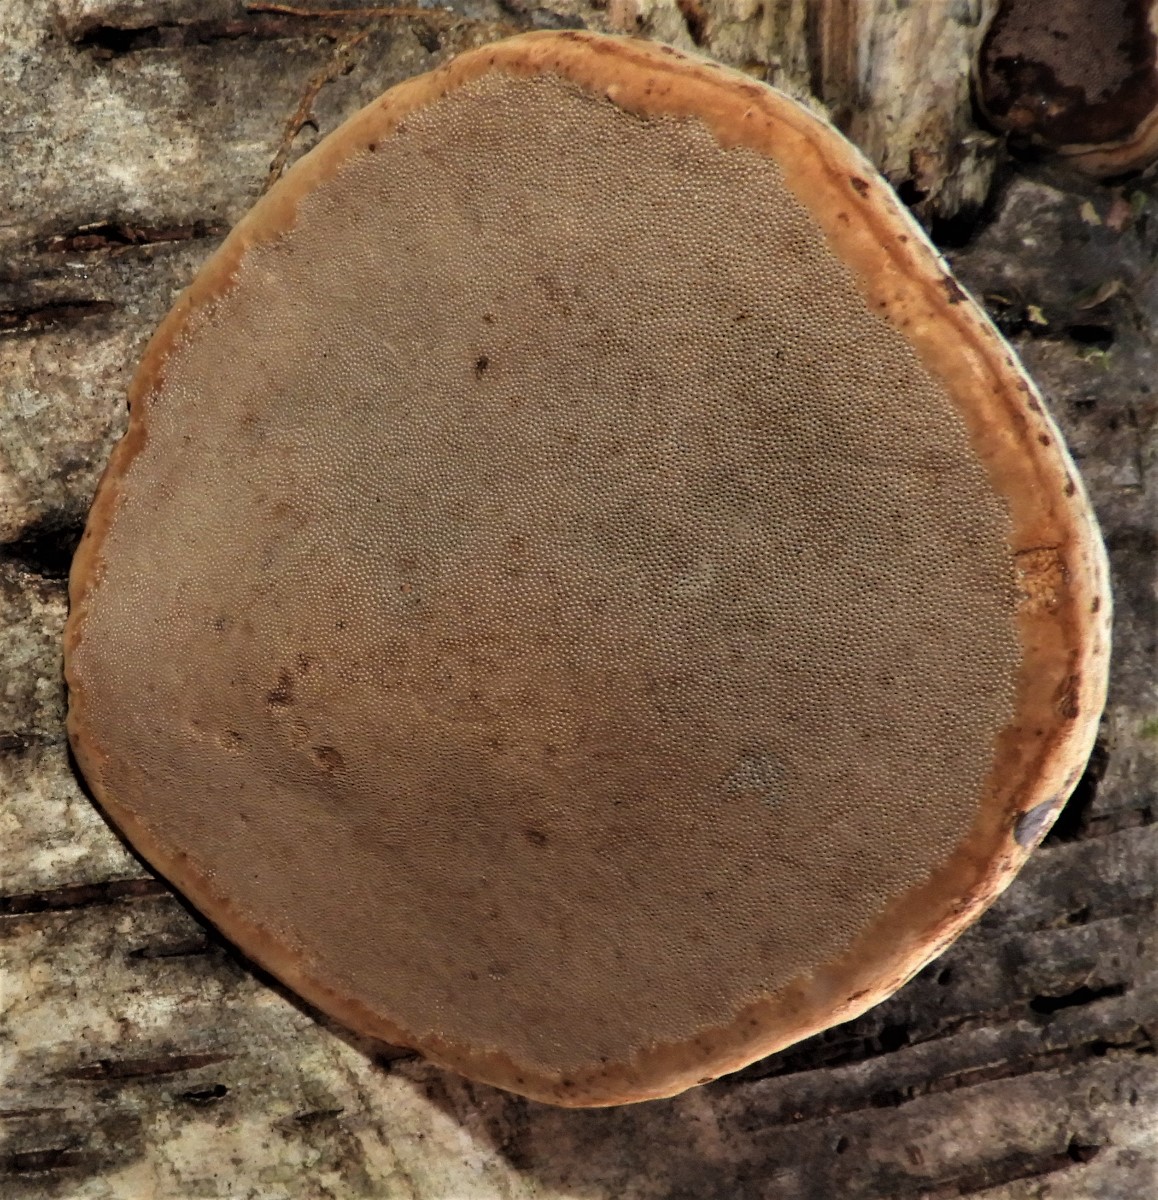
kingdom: Fungi
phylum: Basidiomycota
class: Agaricomycetes
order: Polyporales
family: Polyporaceae
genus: Fomes
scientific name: Fomes fomentarius
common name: tøndersvamp
